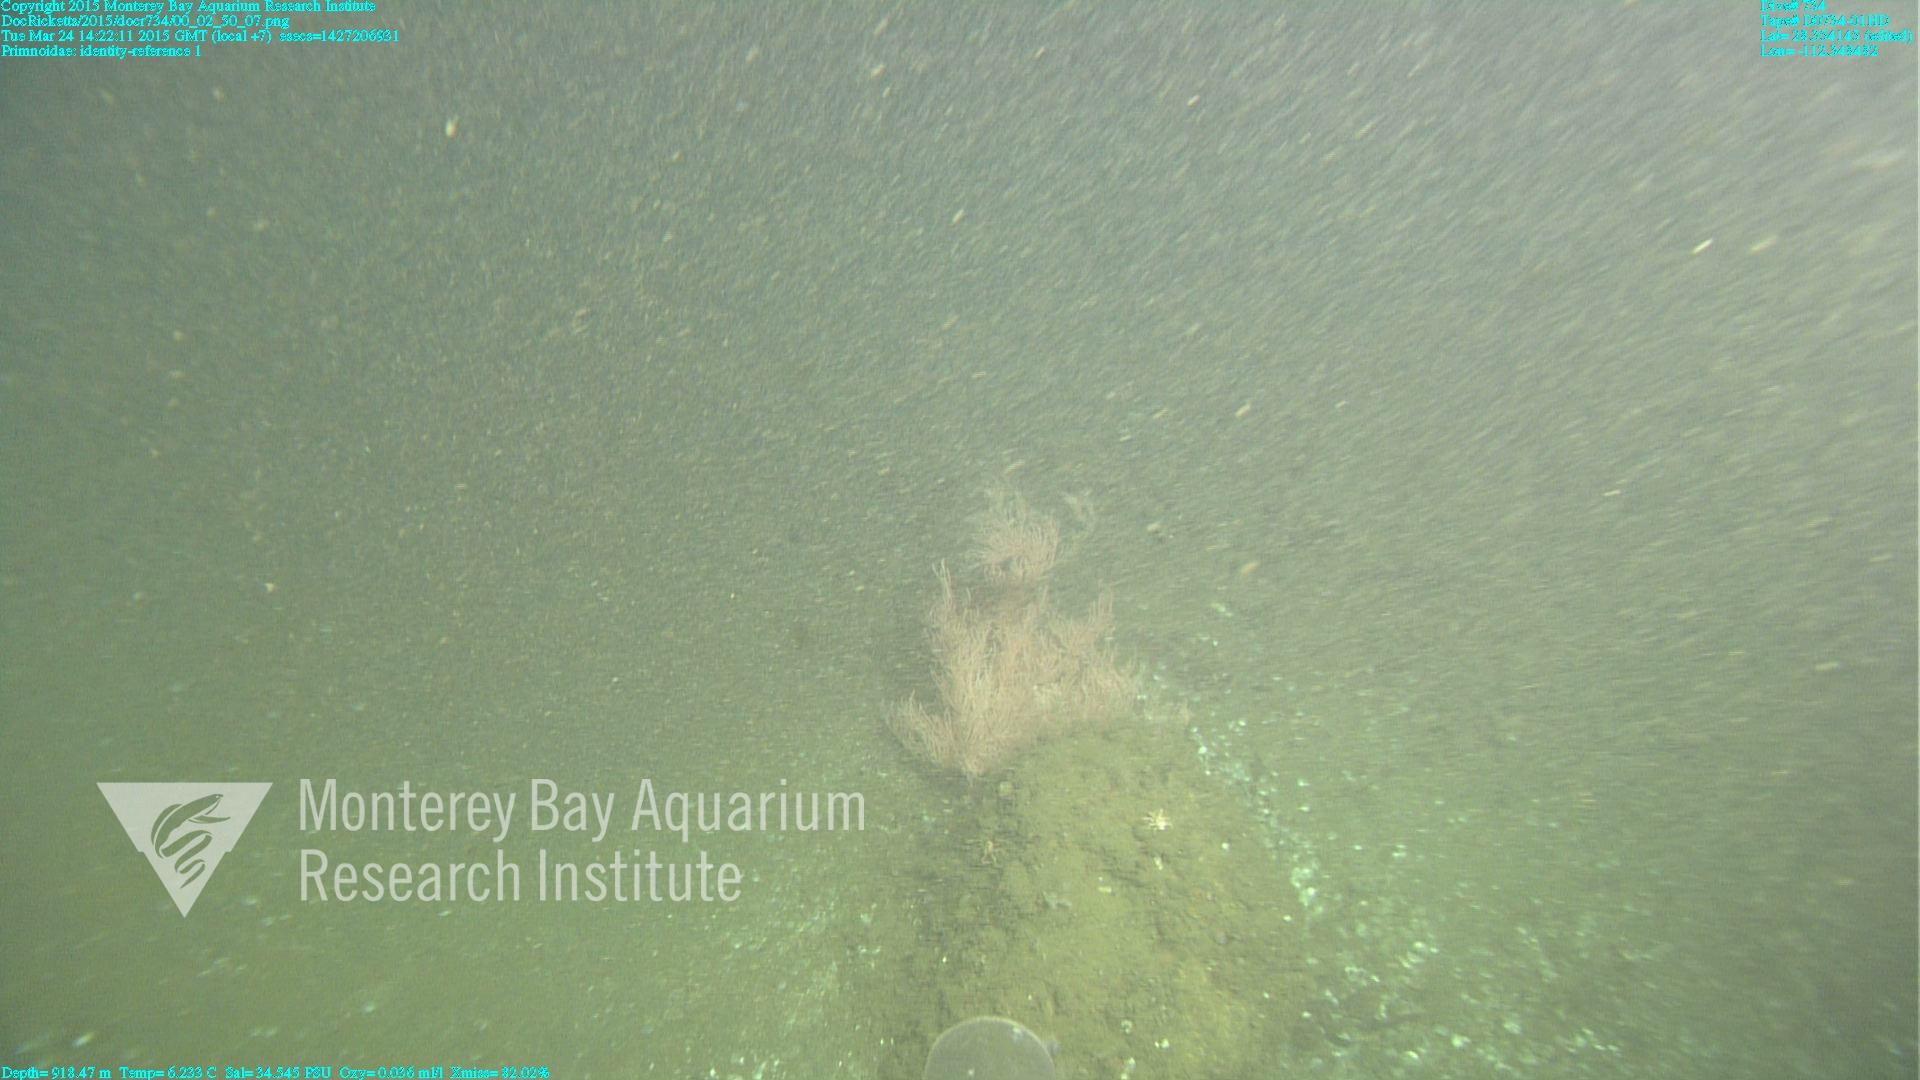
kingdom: Animalia
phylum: Cnidaria
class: Anthozoa
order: Scleralcyonacea
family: Primnoidae
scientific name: Primnoidae
